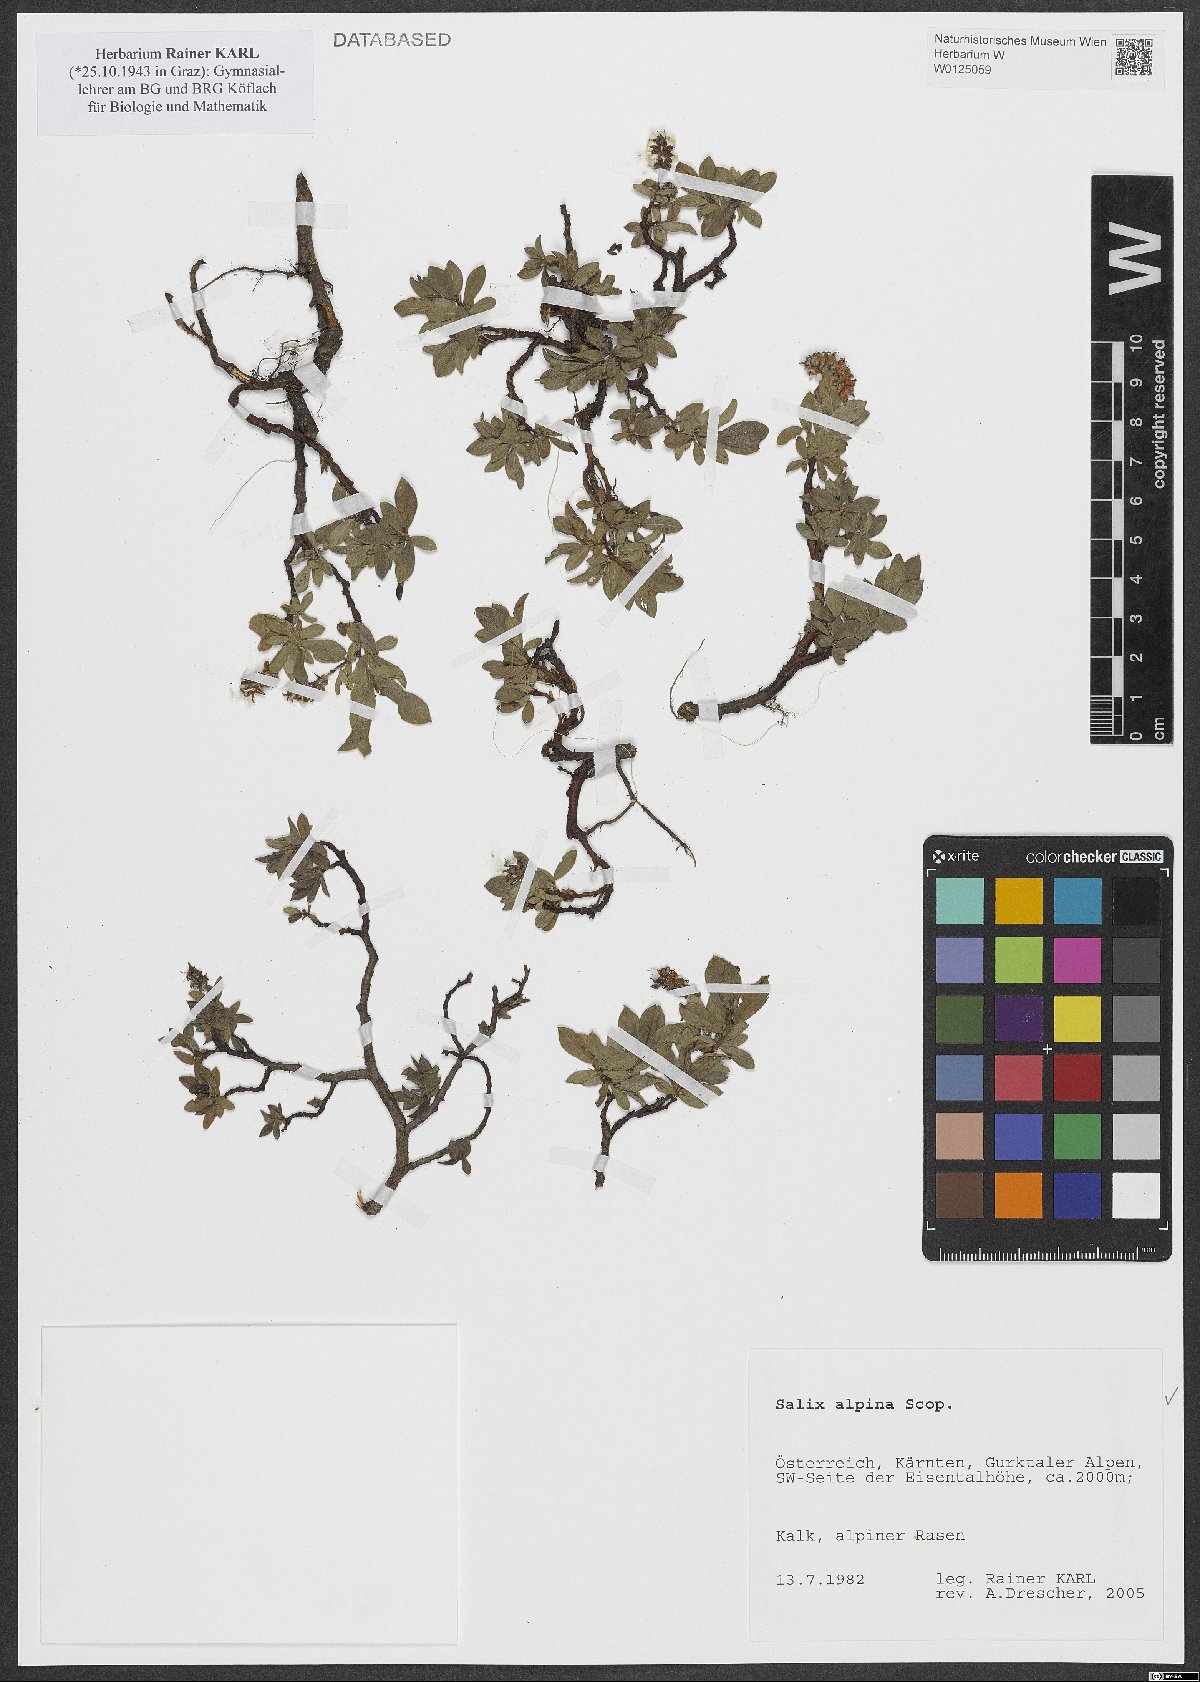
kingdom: Plantae
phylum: Tracheophyta
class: Magnoliopsida
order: Malpighiales
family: Salicaceae
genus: Salix
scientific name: Salix alpina
